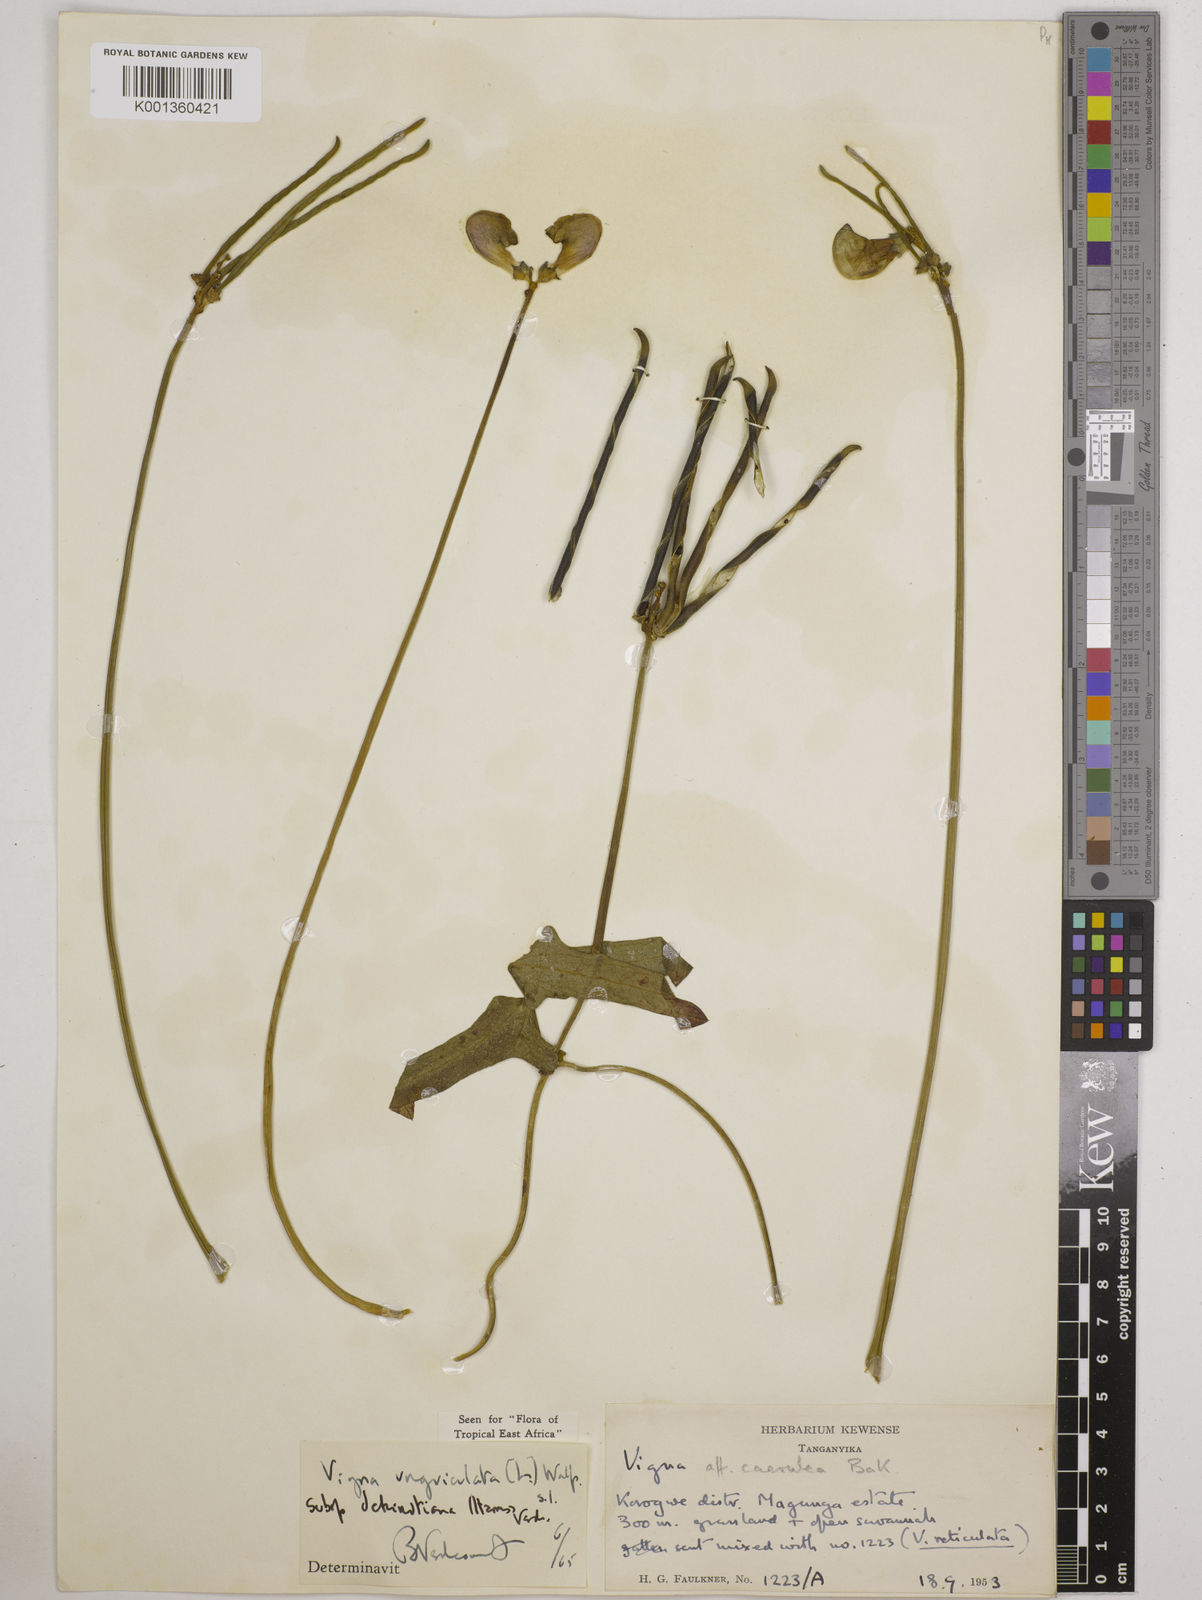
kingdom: Plantae
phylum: Tracheophyta
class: Magnoliopsida
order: Fabales
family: Fabaceae
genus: Vigna
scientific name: Vigna
